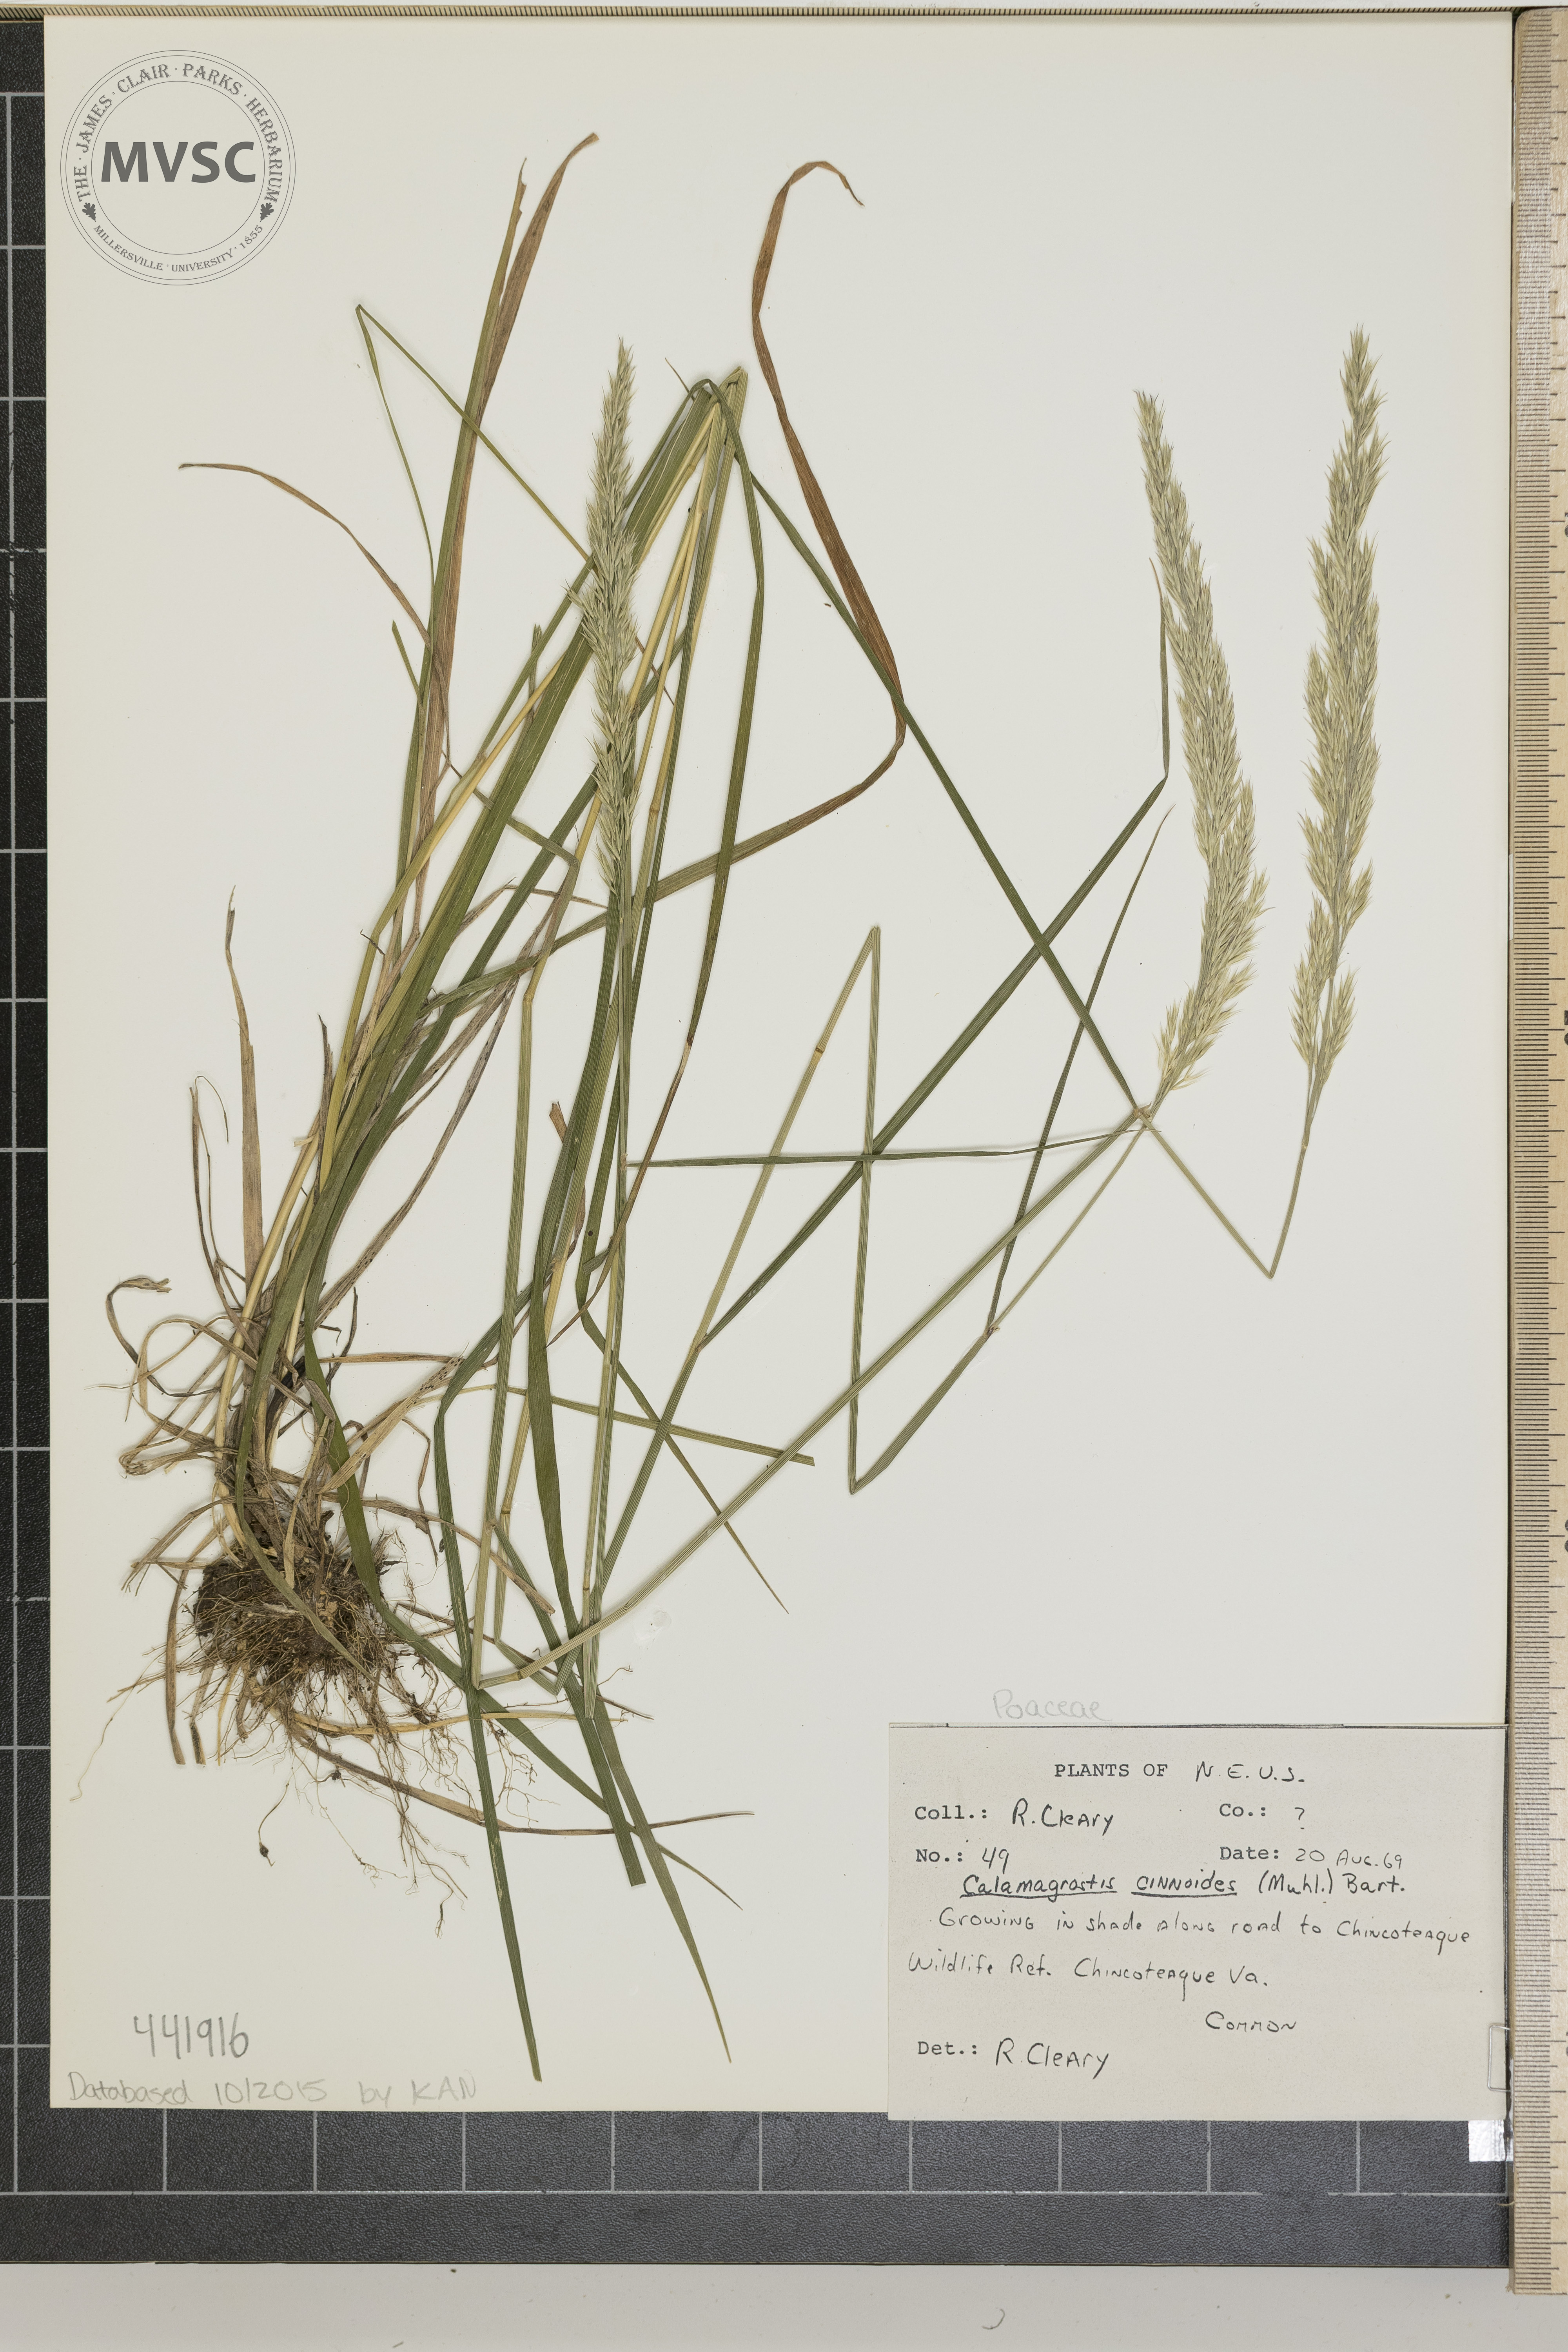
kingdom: Plantae
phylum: Tracheophyta
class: Liliopsida
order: Poales
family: Poaceae
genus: Calamagrostis
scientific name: Calamagrostis canadensis
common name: Canada bluejoint
